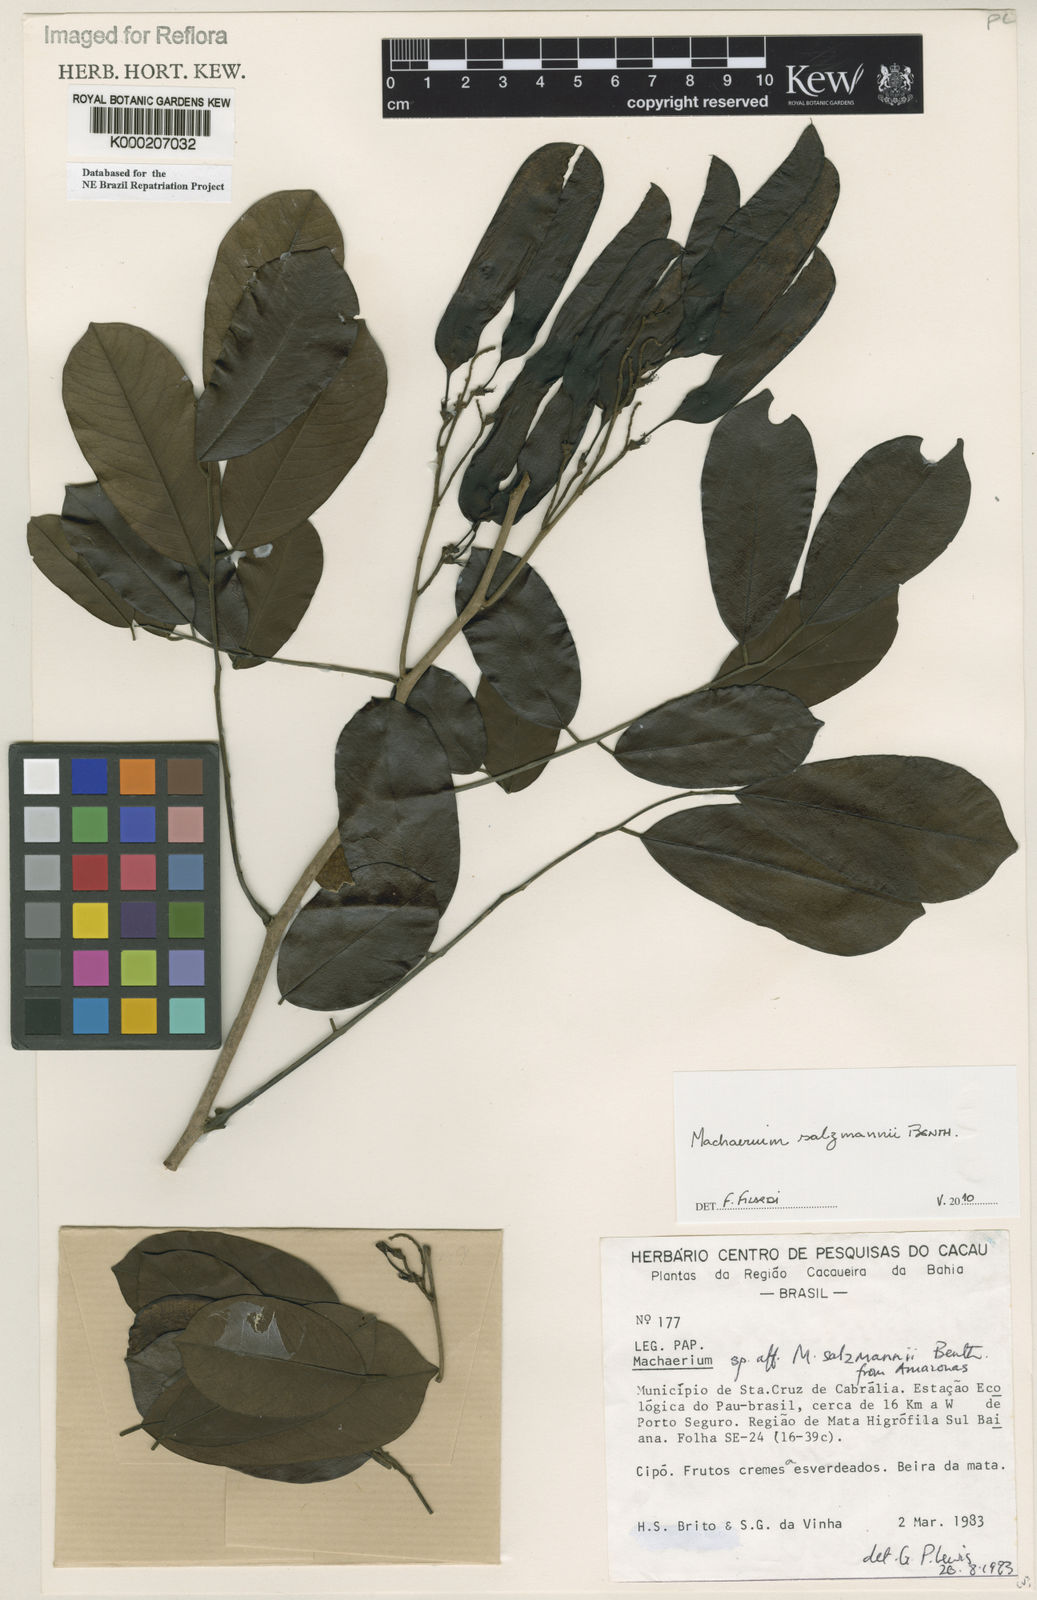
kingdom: Plantae
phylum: Tracheophyta
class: Magnoliopsida
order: Fabales
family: Fabaceae
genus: Machaerium
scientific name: Machaerium salzmannii
